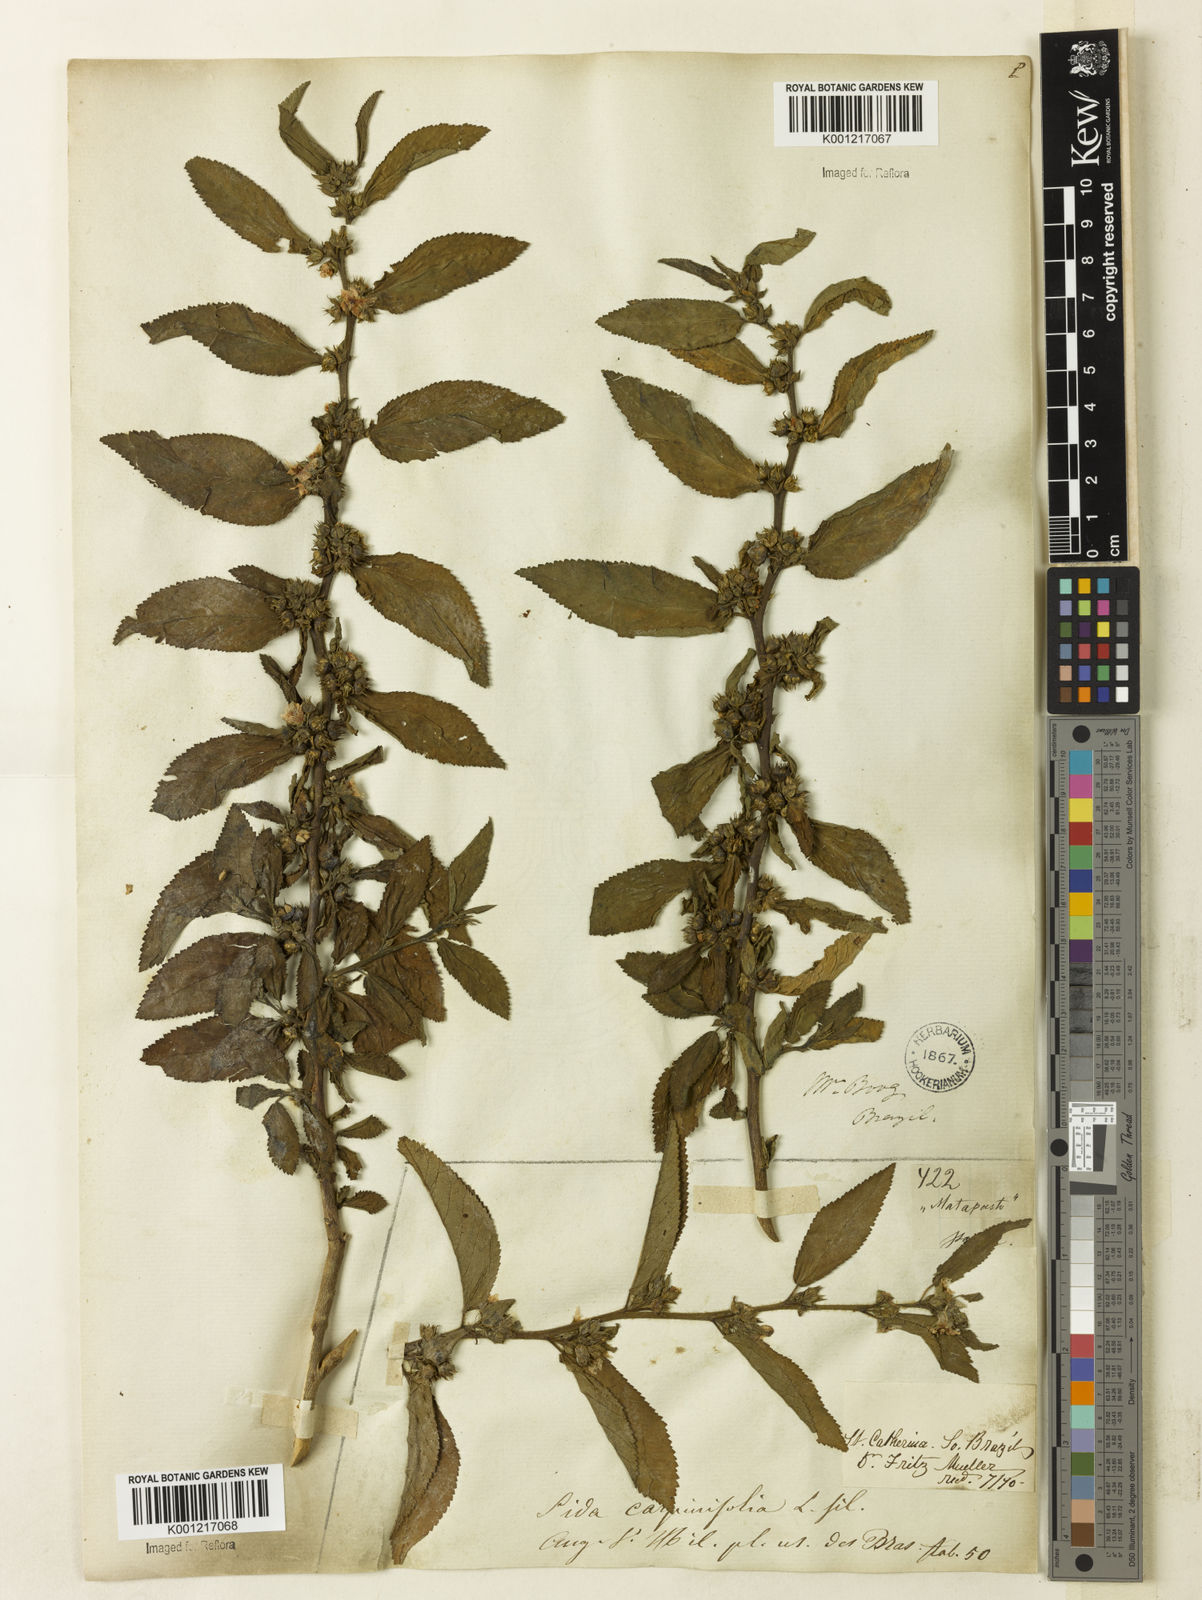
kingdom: Plantae
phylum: Tracheophyta
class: Magnoliopsida
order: Malvales
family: Malvaceae
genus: Sida
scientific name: Sida
